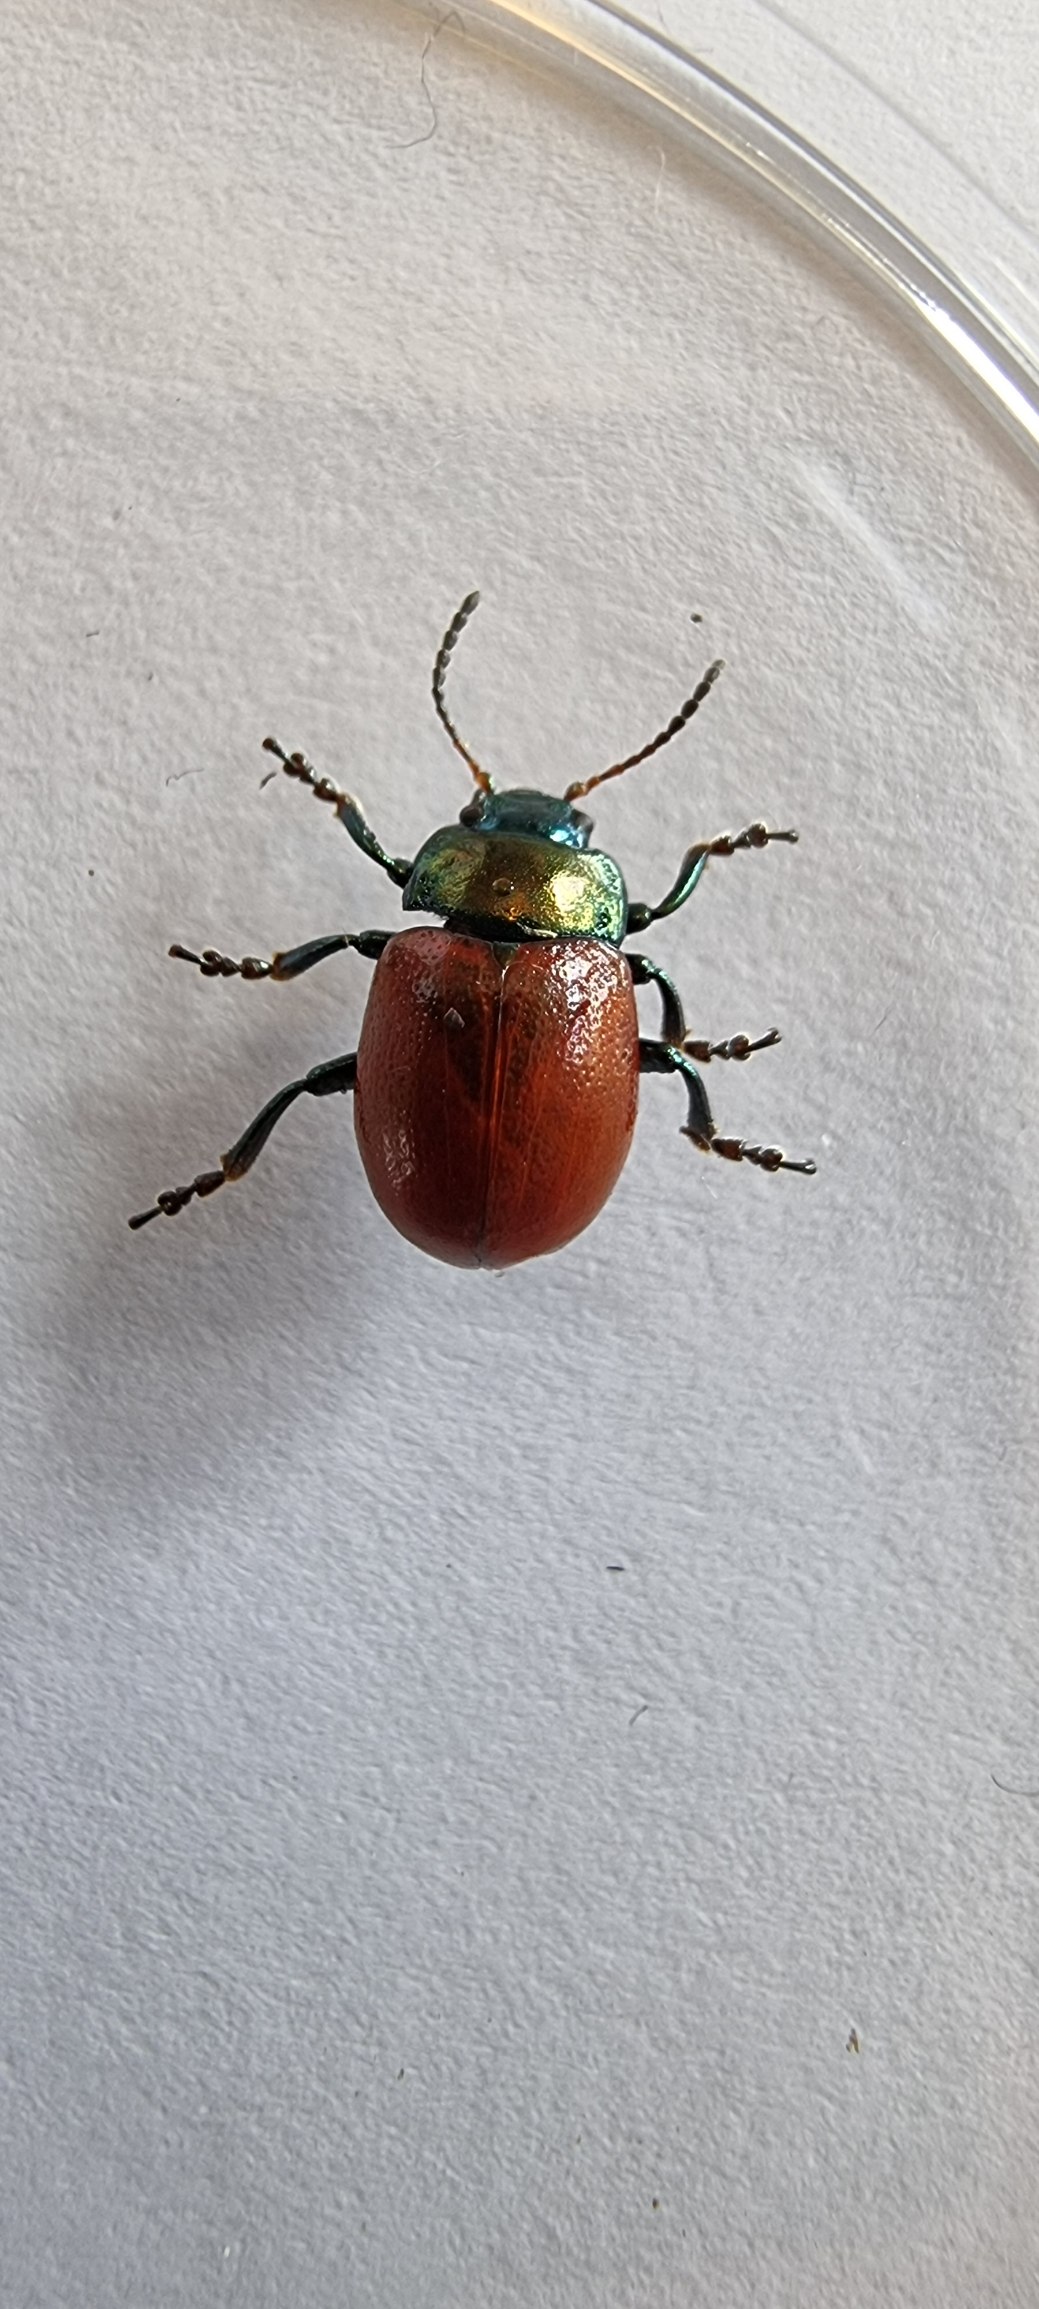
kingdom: Animalia
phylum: Arthropoda
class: Insecta
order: Coleoptera
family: Chrysomelidae
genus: Chrysomela
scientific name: Chrysomela polita
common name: Forskelligfarvet guldbille
